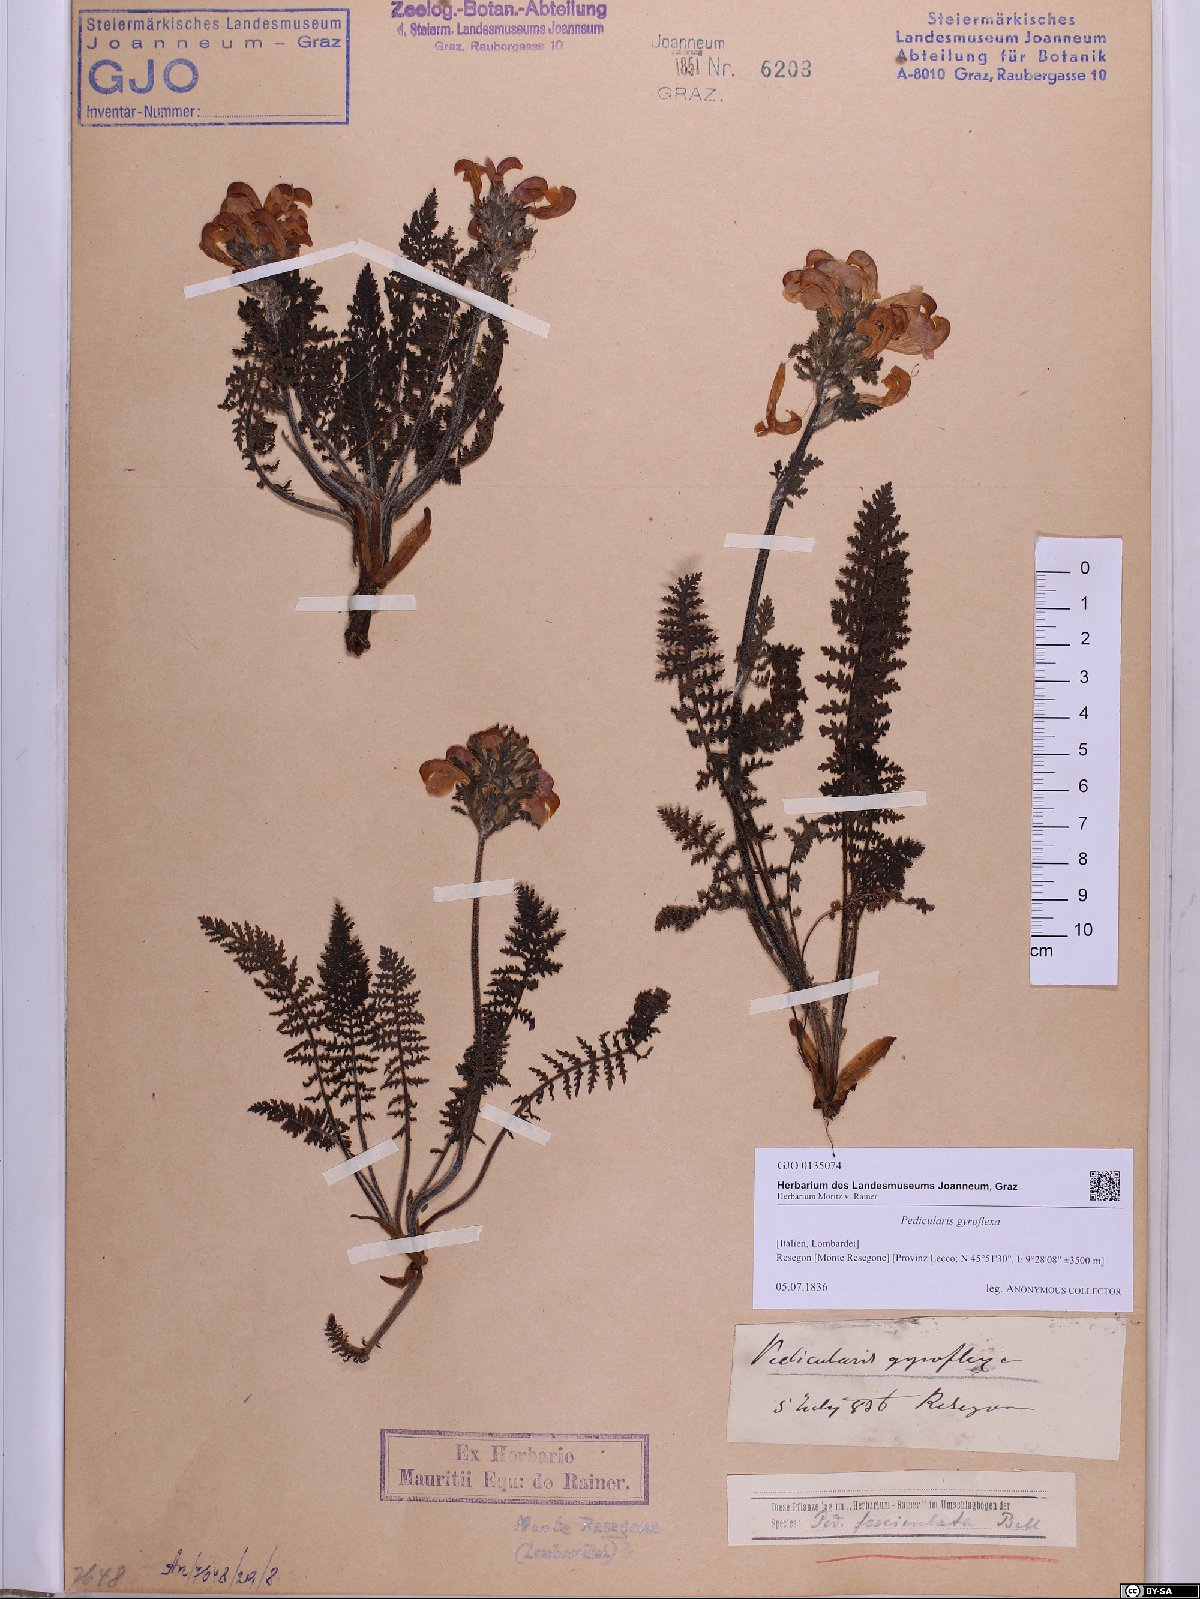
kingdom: Plantae
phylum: Tracheophyta
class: Magnoliopsida
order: Lamiales
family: Orobanchaceae
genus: Pedicularis
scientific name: Pedicularis gyroflexa
